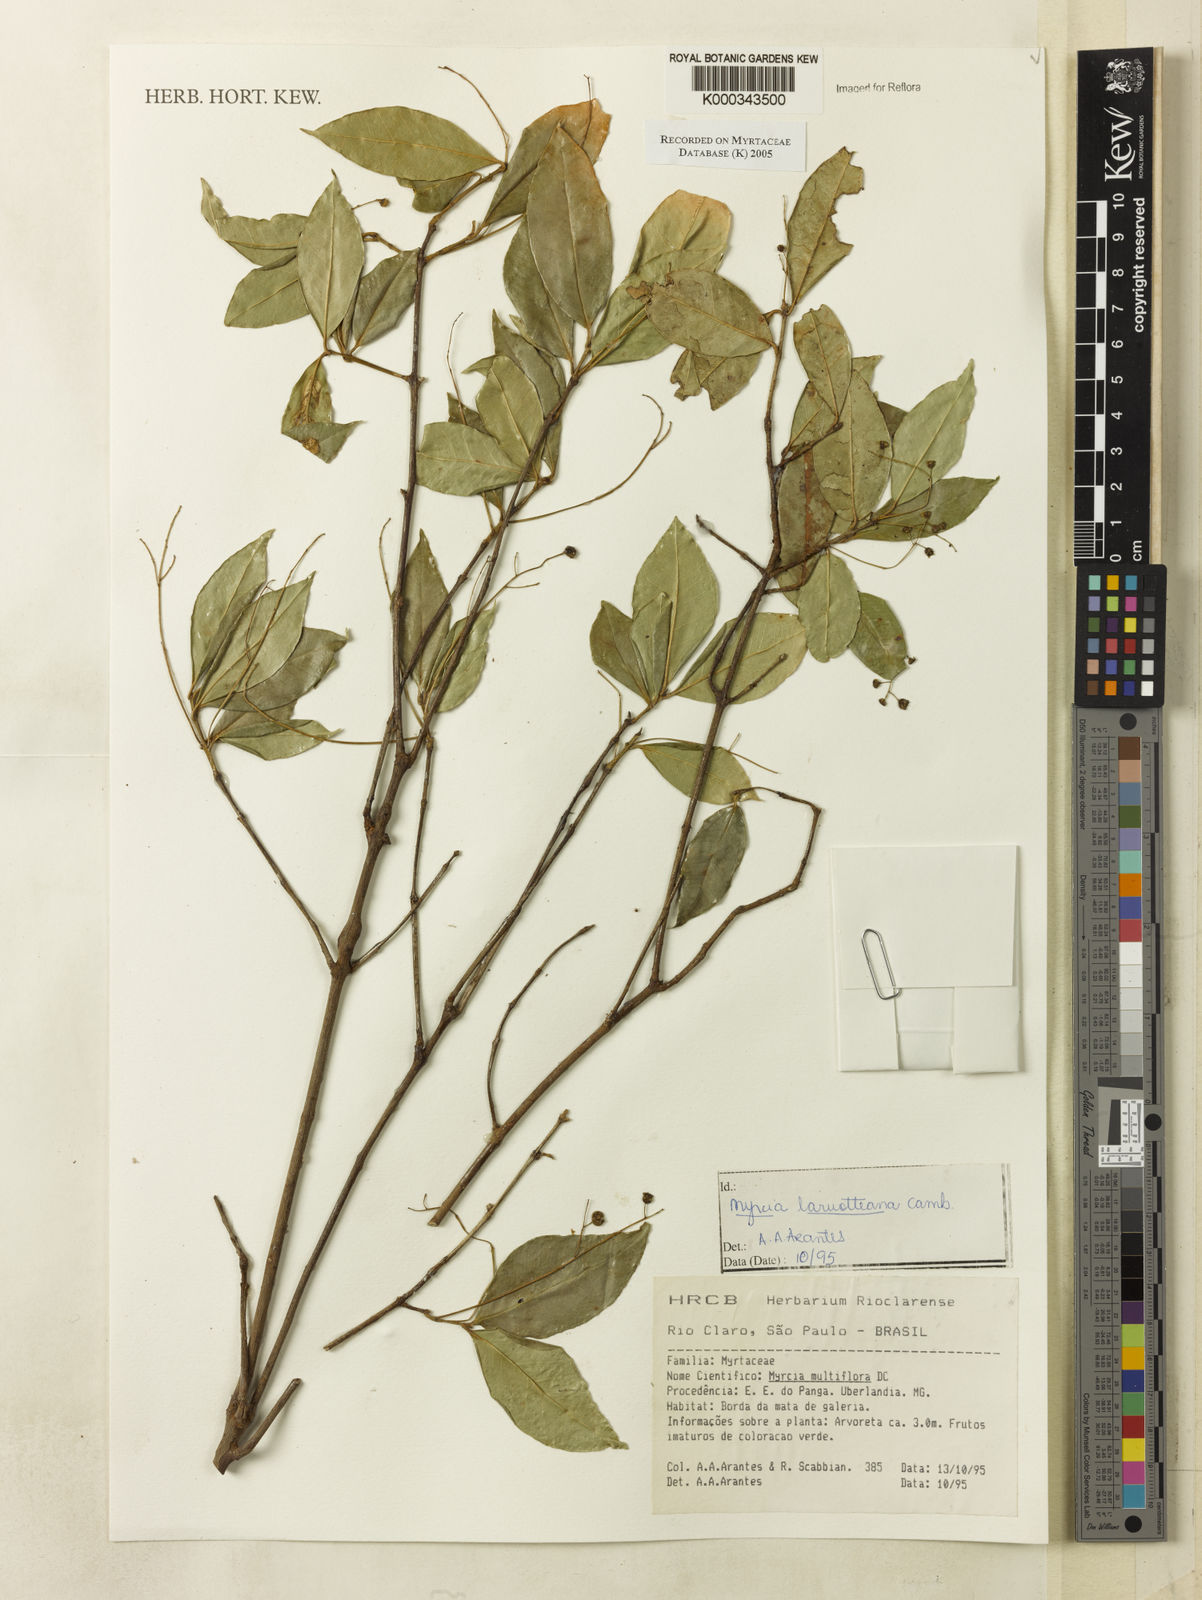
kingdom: Plantae
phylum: Tracheophyta
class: Magnoliopsida
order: Myrtales
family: Myrtaceae
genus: Myrcia
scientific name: Myrcia laruotteana
